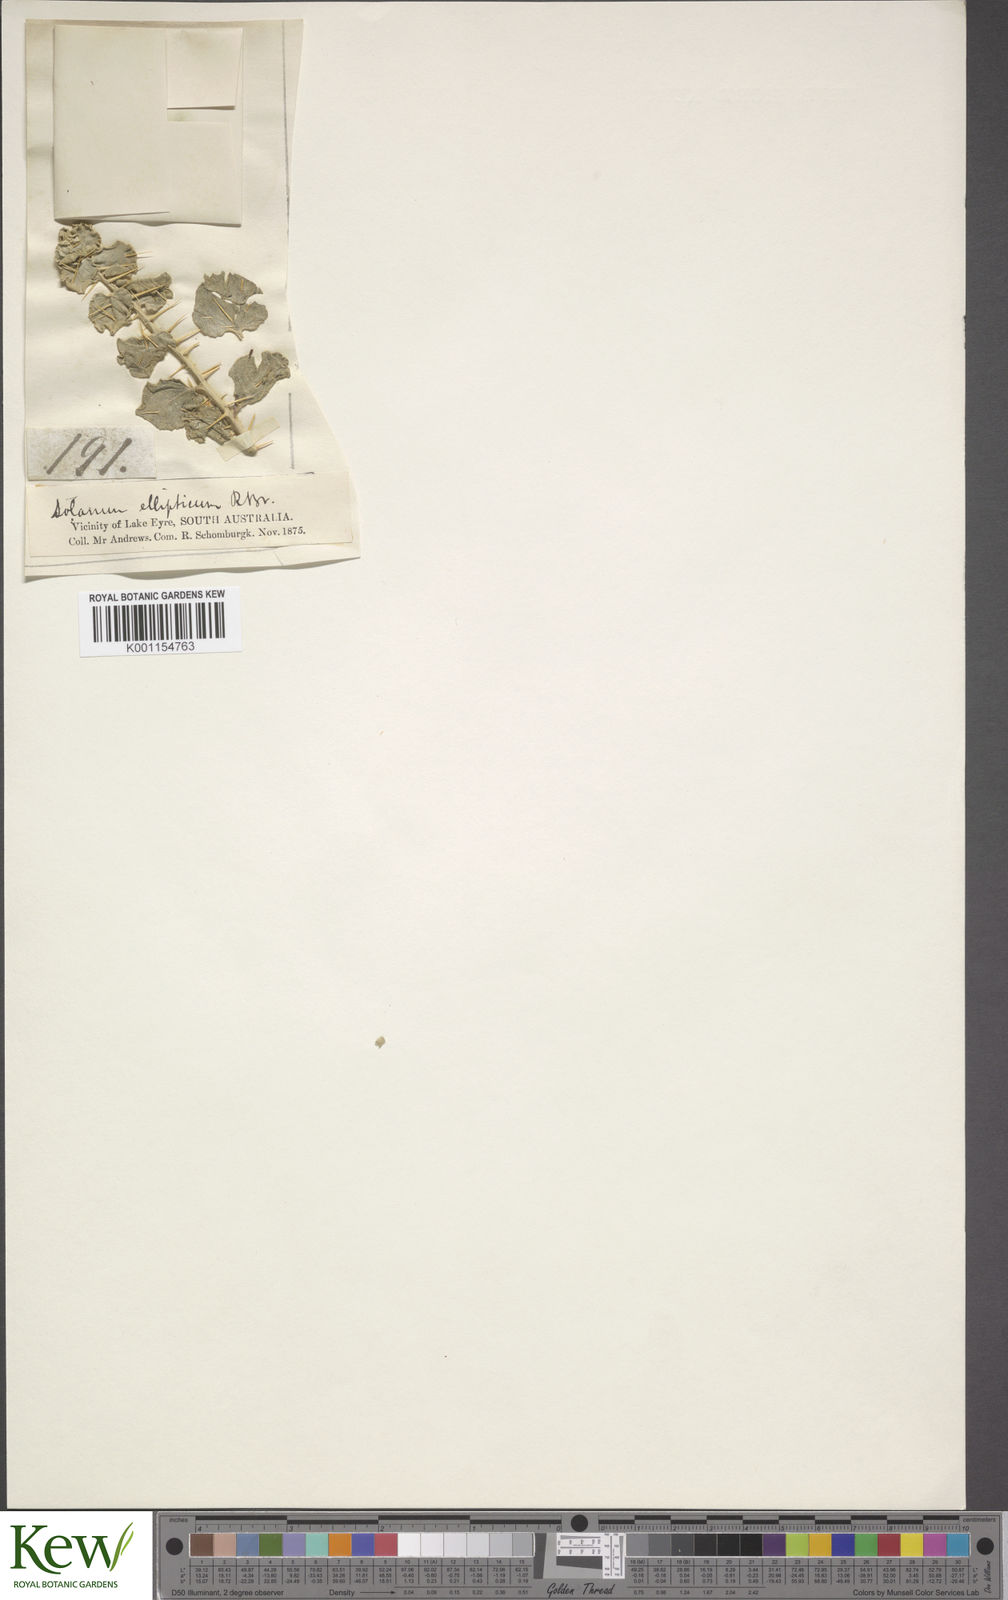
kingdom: Plantae
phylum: Tracheophyta
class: Magnoliopsida
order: Solanales
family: Solanaceae
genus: Solanum
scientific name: Solanum oligacanthum
